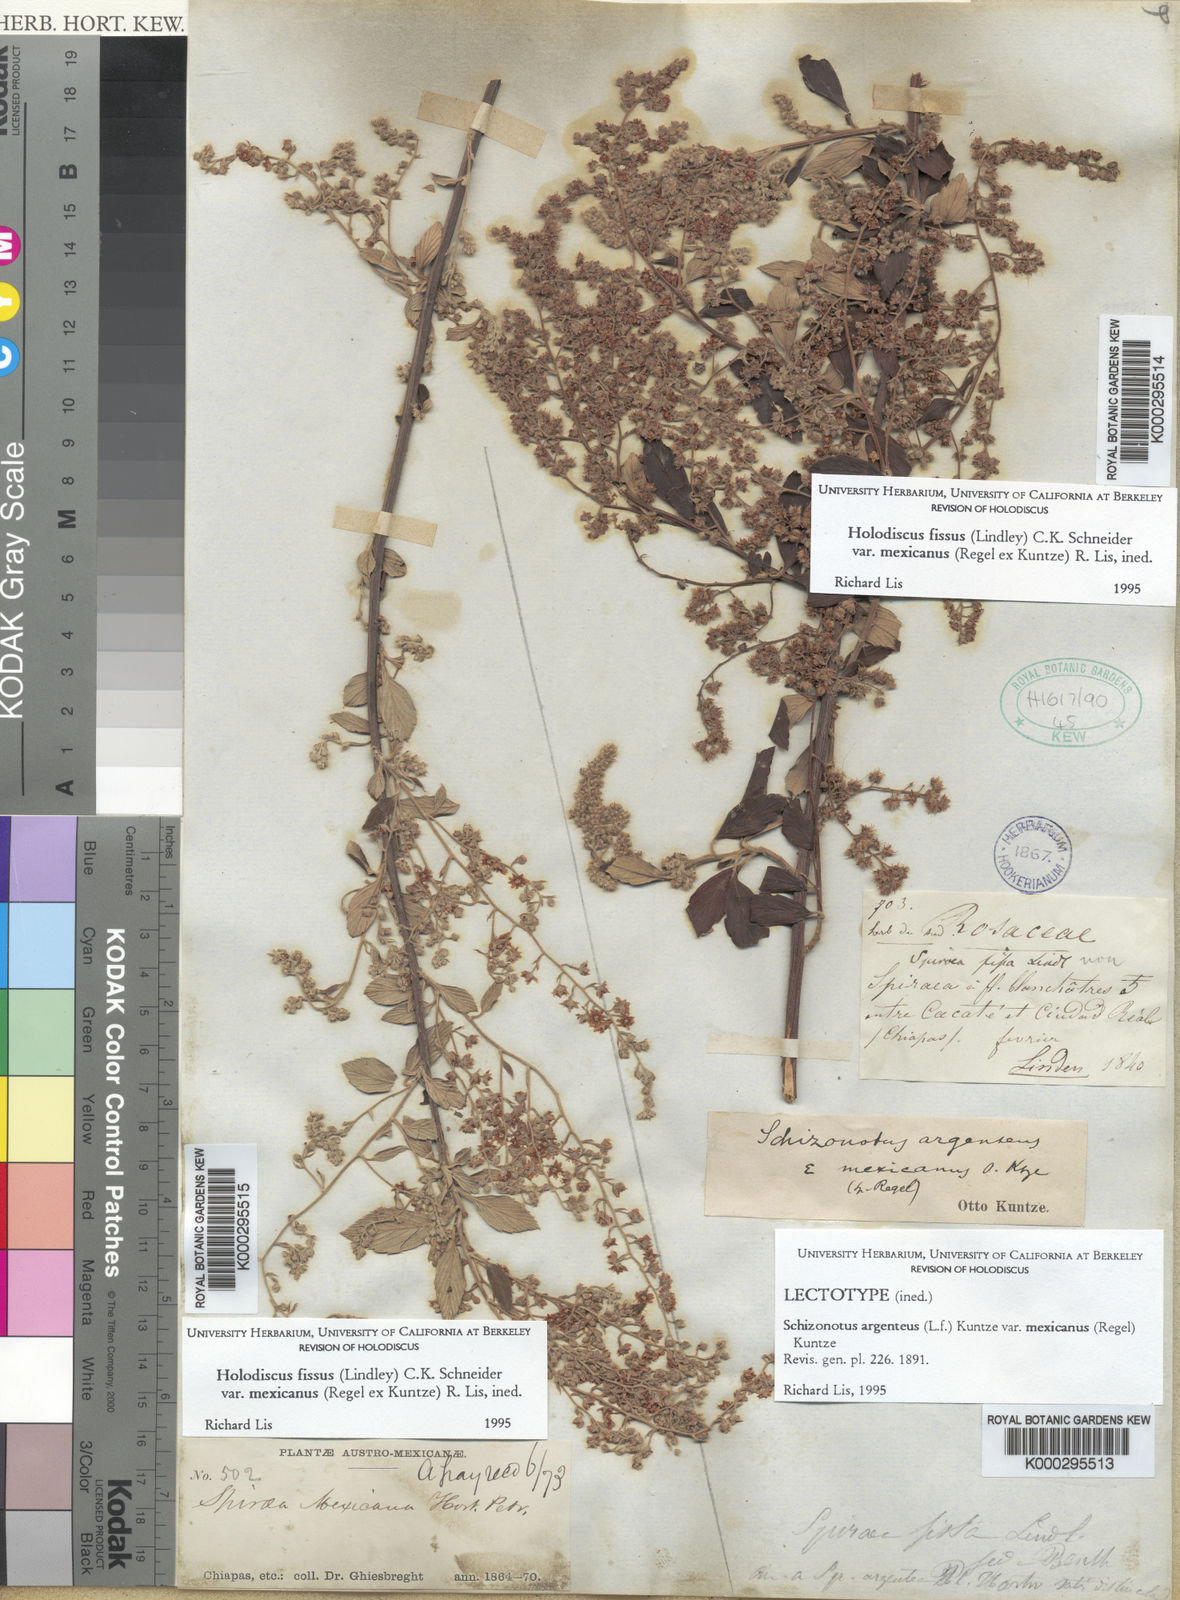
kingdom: Plantae
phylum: Tracheophyta
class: Magnoliopsida
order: Rosales
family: Rosaceae
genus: Holodiscus
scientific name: Holodiscus fissus
